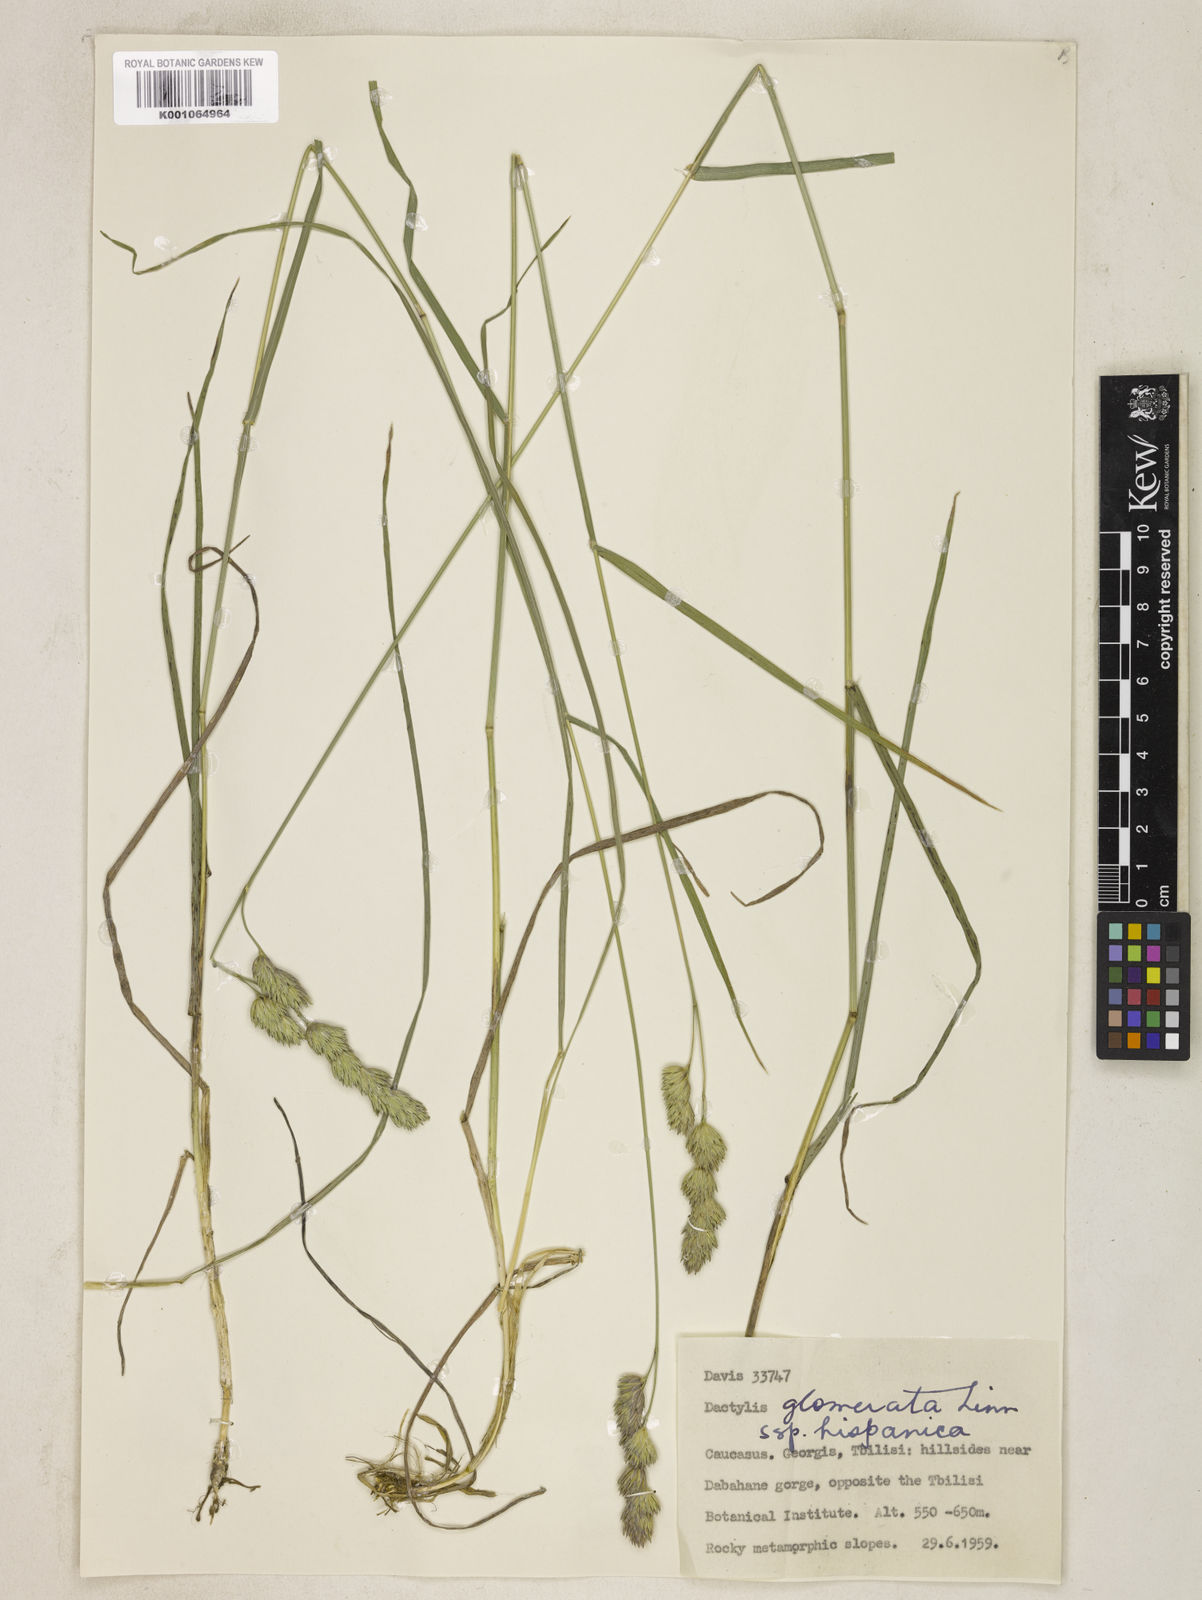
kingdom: Plantae
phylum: Tracheophyta
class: Liliopsida
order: Poales
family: Poaceae
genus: Dactylis
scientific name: Dactylis glomerata
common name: Orchardgrass
